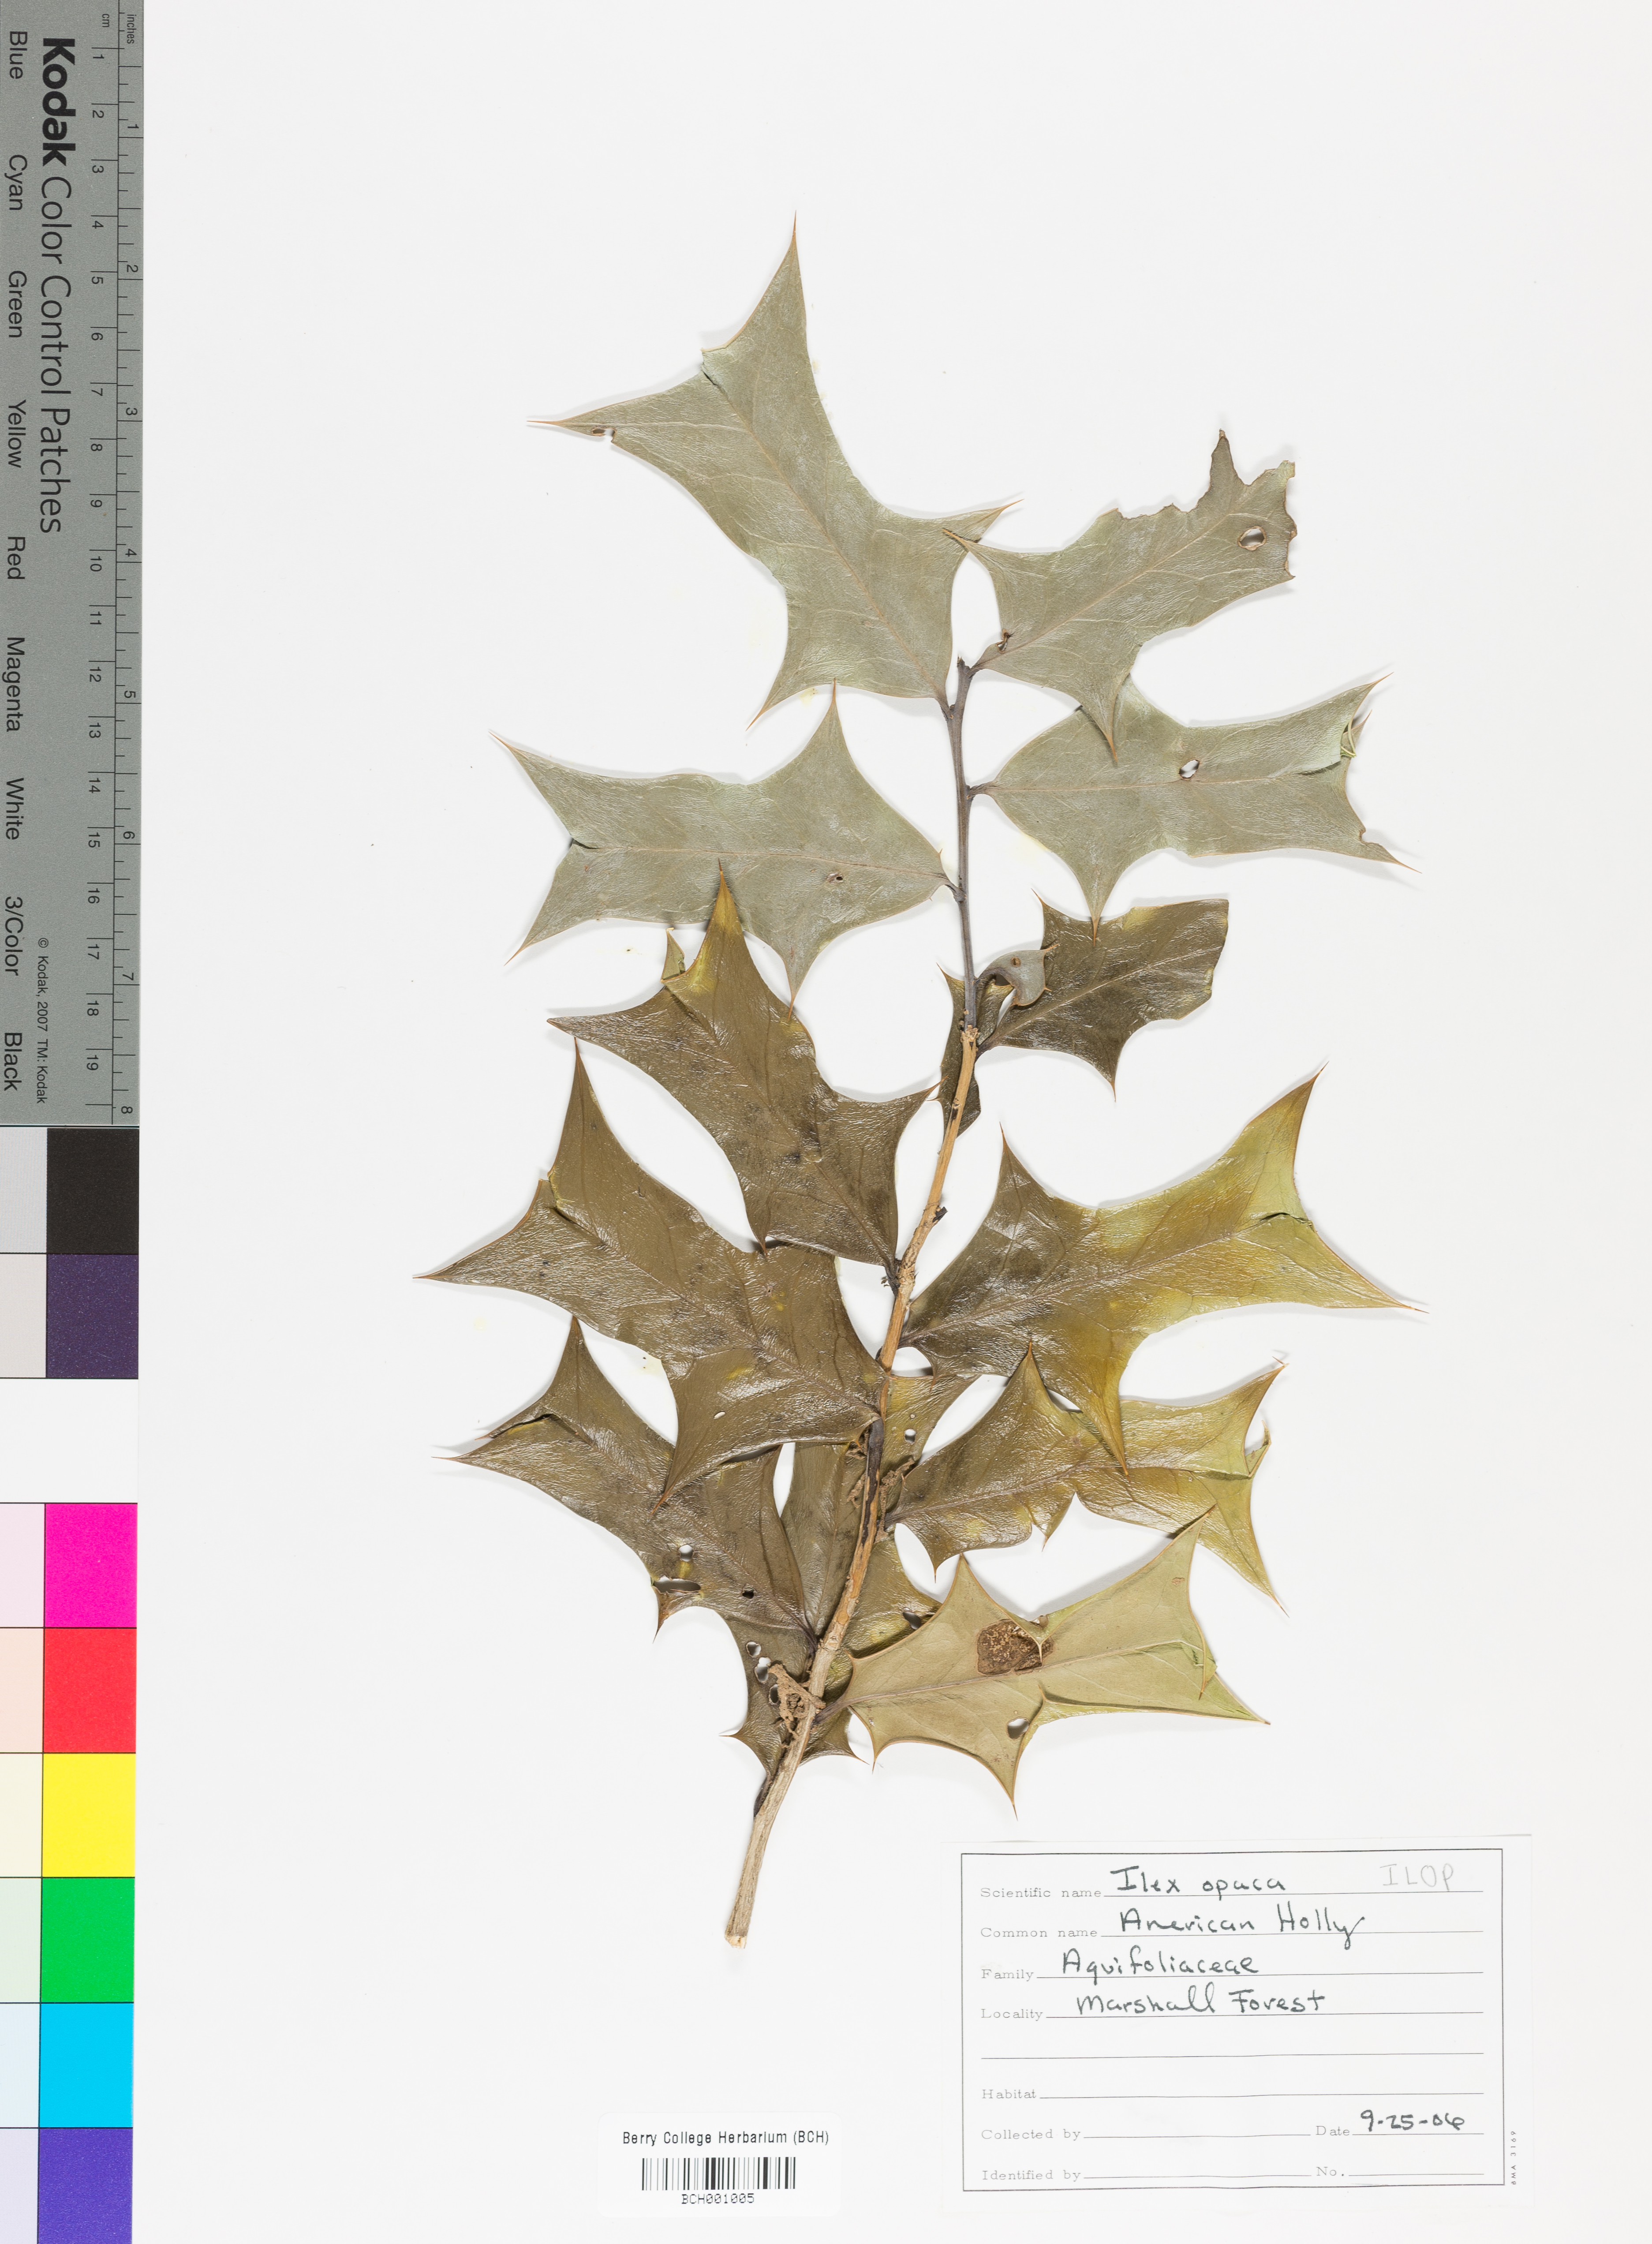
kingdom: Plantae
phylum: Tracheophyta
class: Magnoliopsida
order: Aquifoliales
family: Aquifoliaceae
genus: Ilex
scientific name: Ilex opaca
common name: American holly
